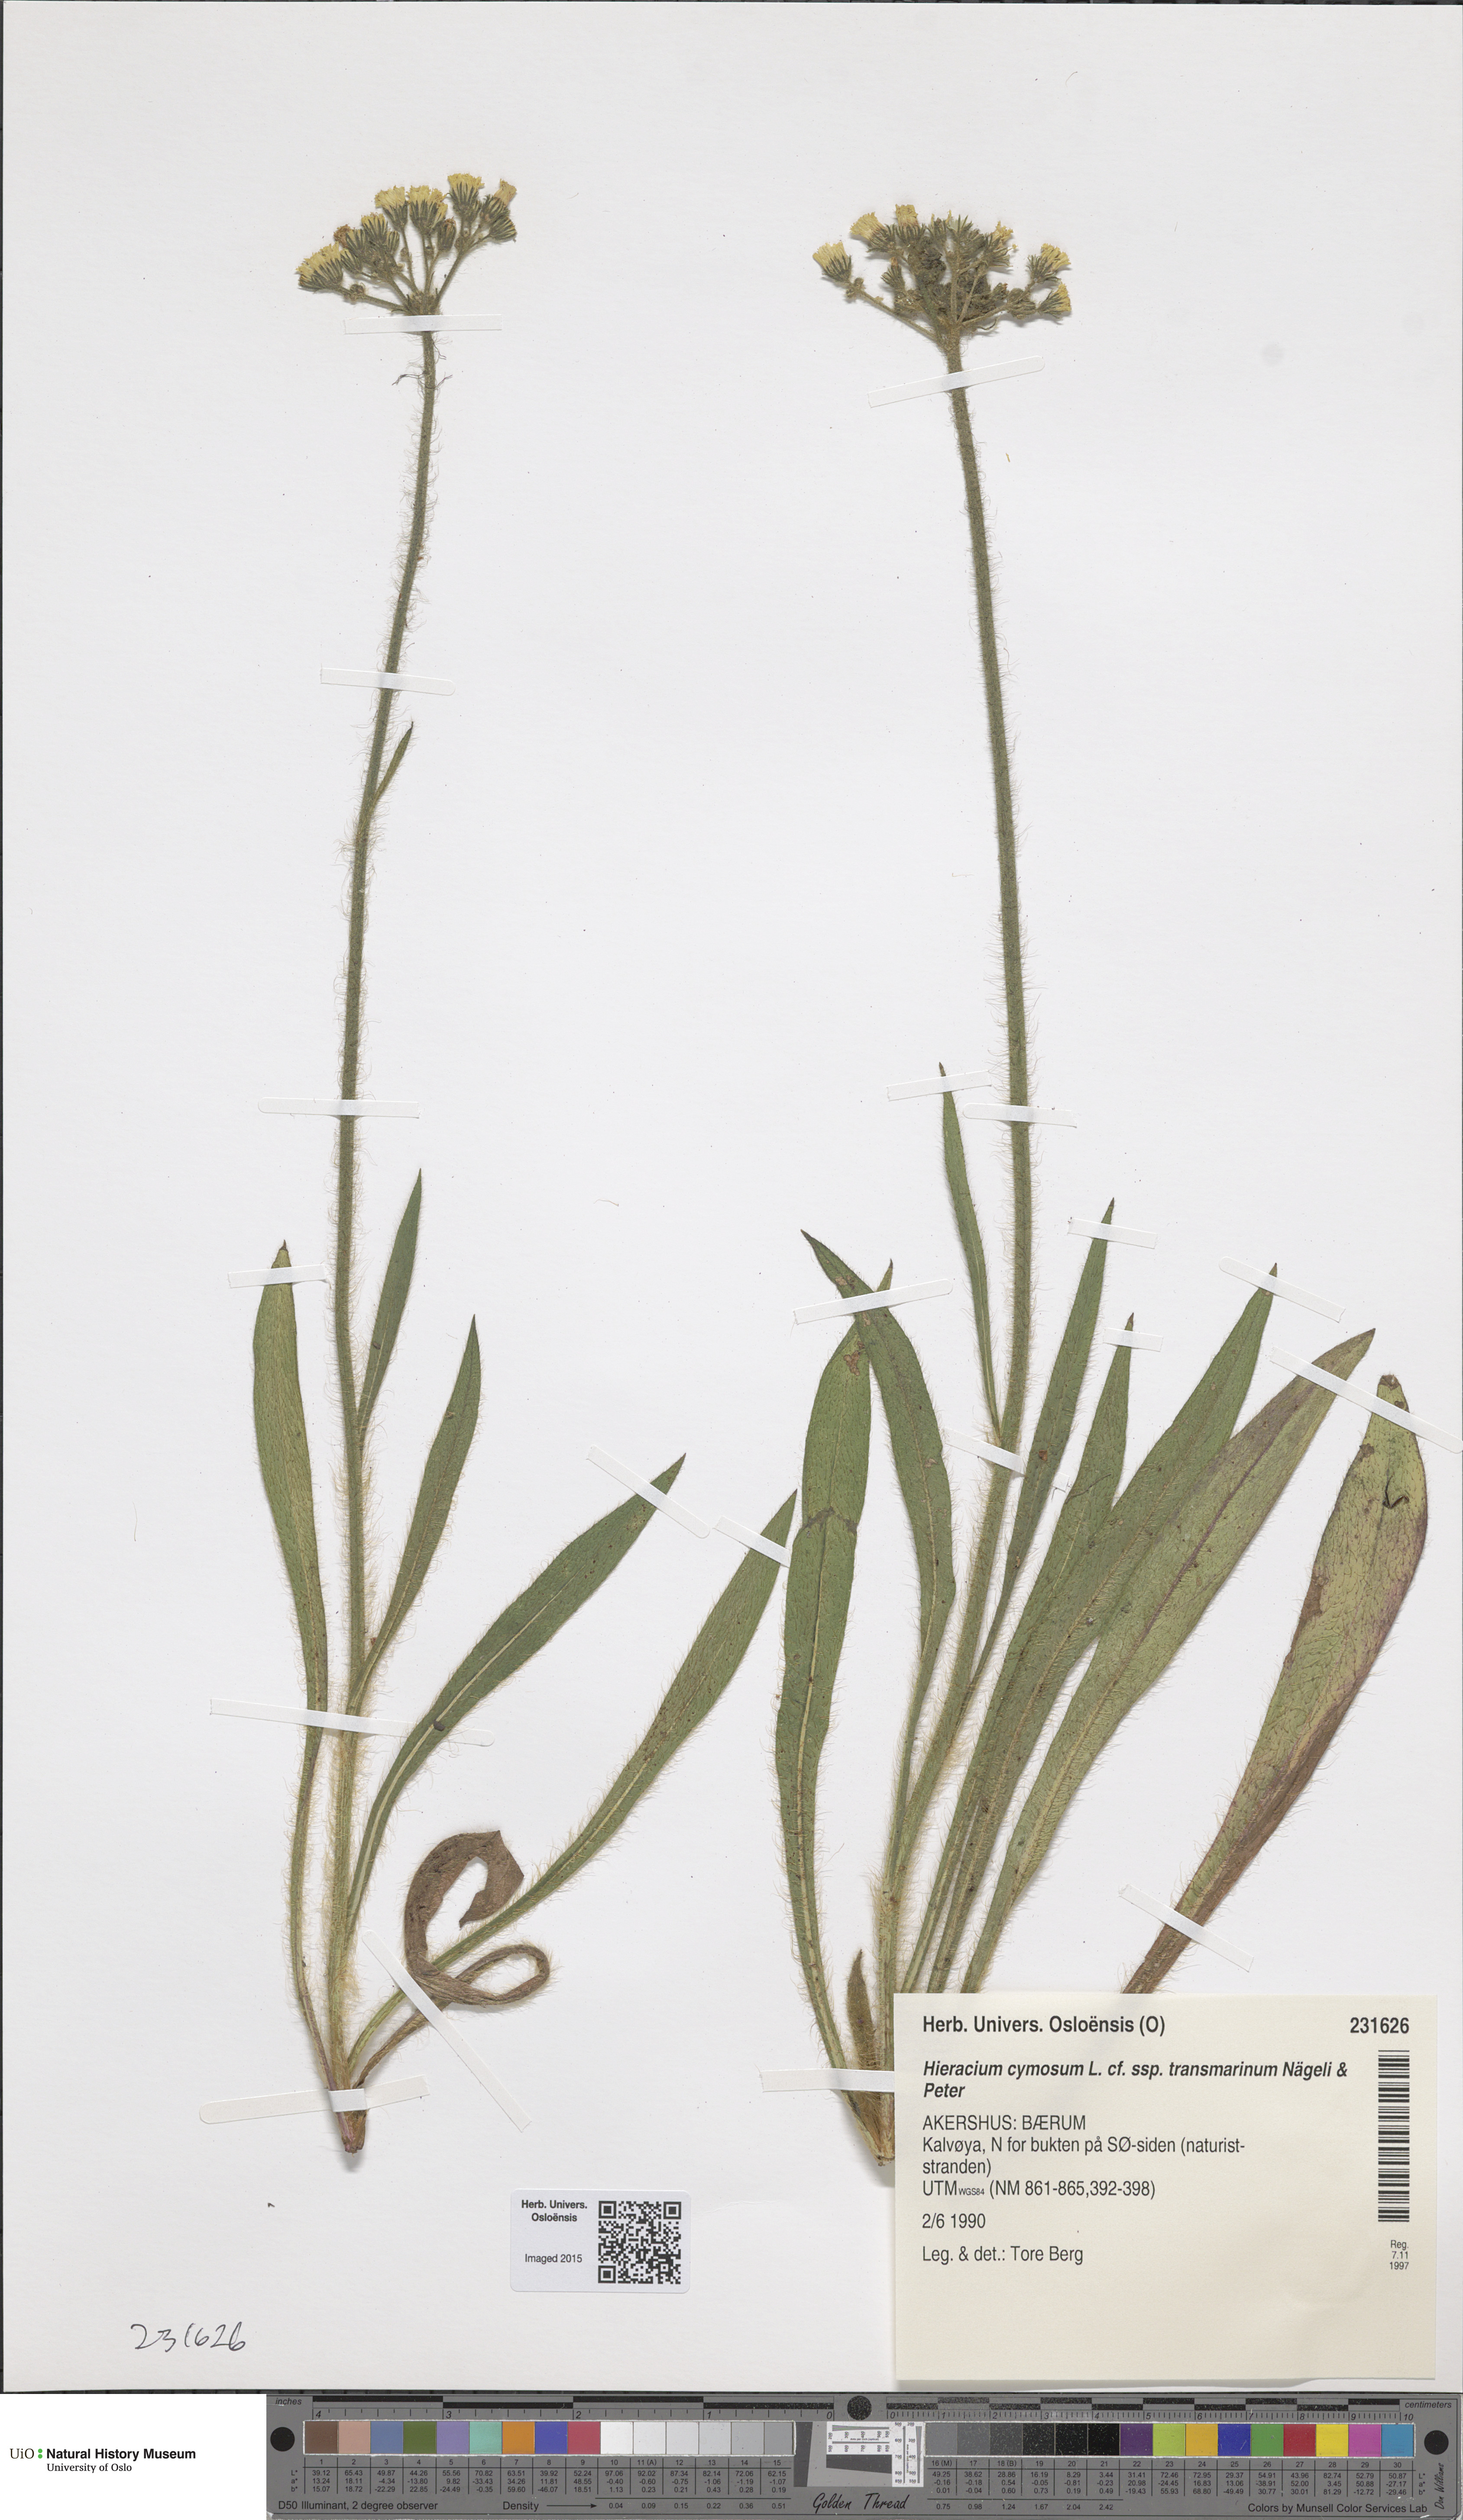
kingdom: Plantae
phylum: Tracheophyta
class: Magnoliopsida
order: Asterales
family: Asteraceae
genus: Pilosella
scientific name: Pilosella cymosa
